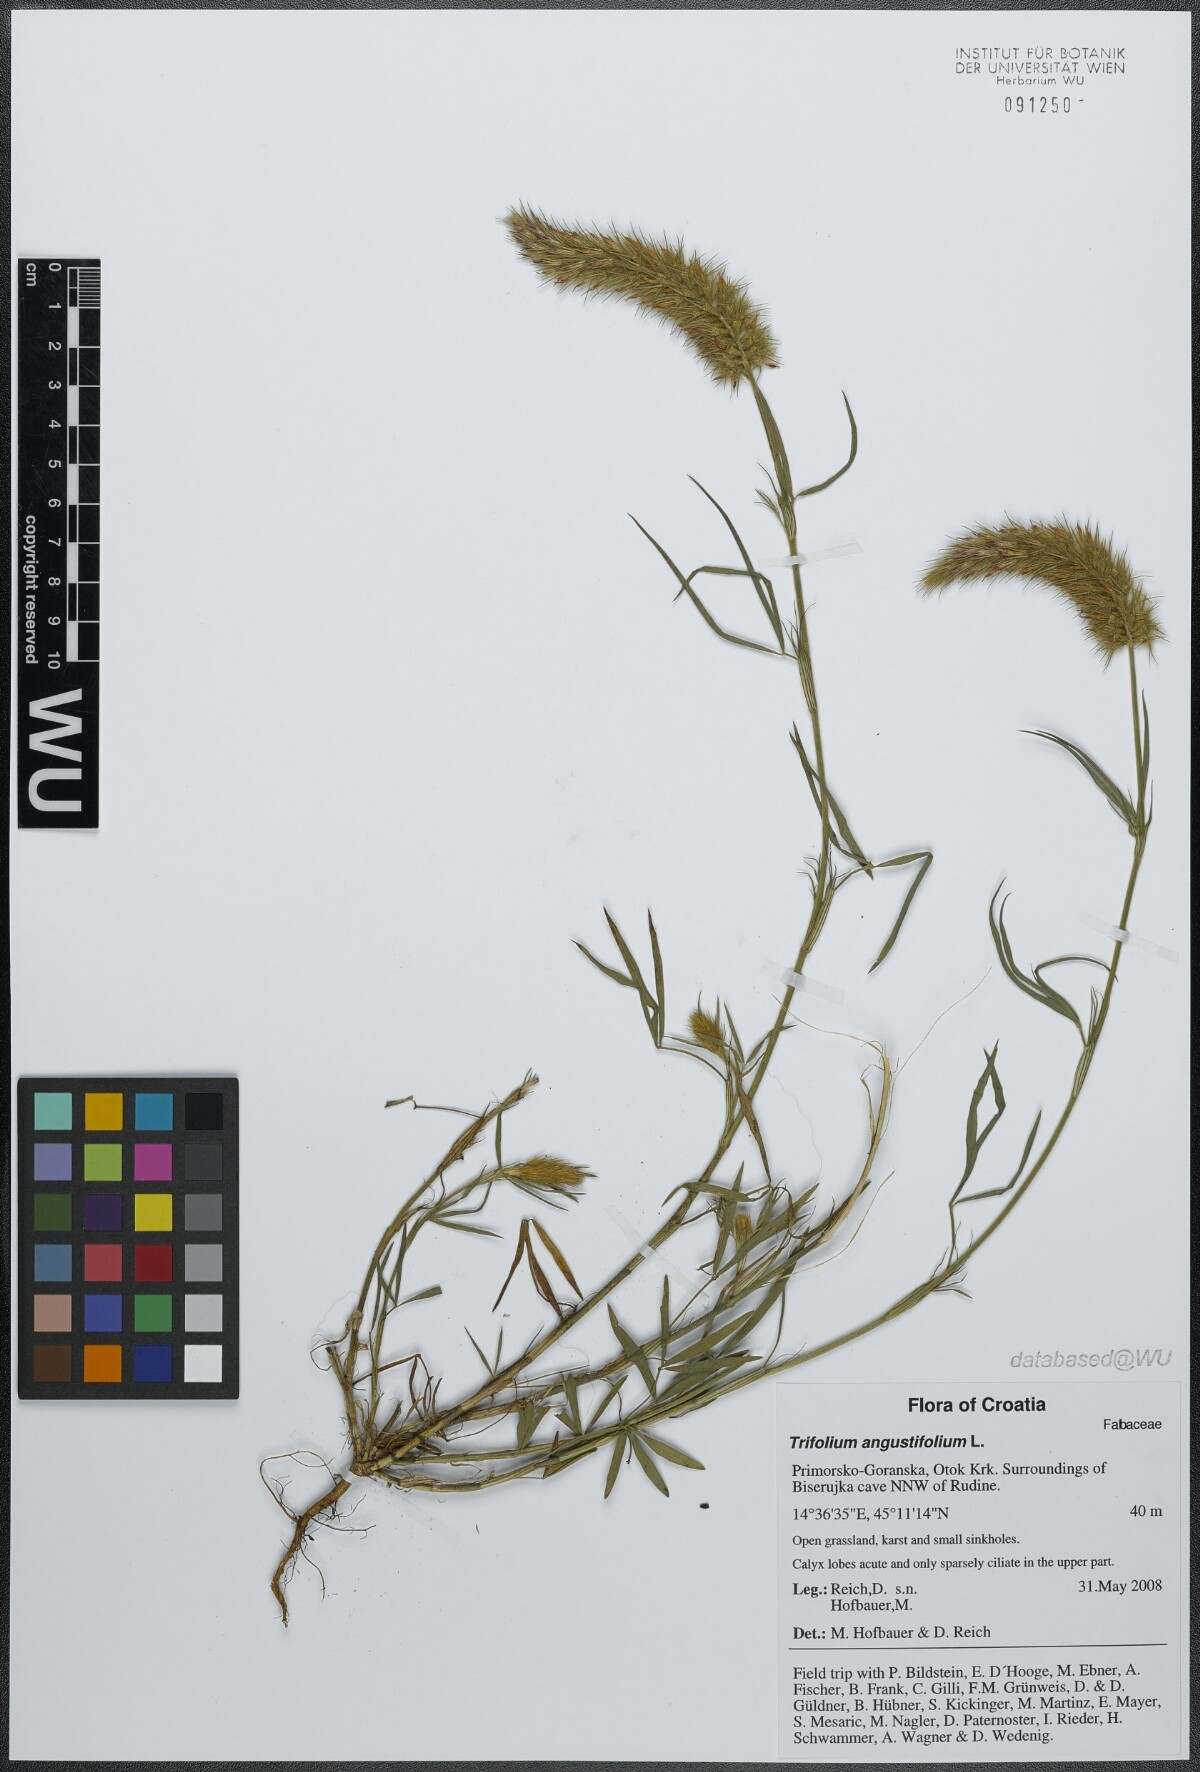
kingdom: Plantae
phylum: Tracheophyta
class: Magnoliopsida
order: Fabales
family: Fabaceae
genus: Trifolium
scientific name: Trifolium angustifolium
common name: Narrow clover
